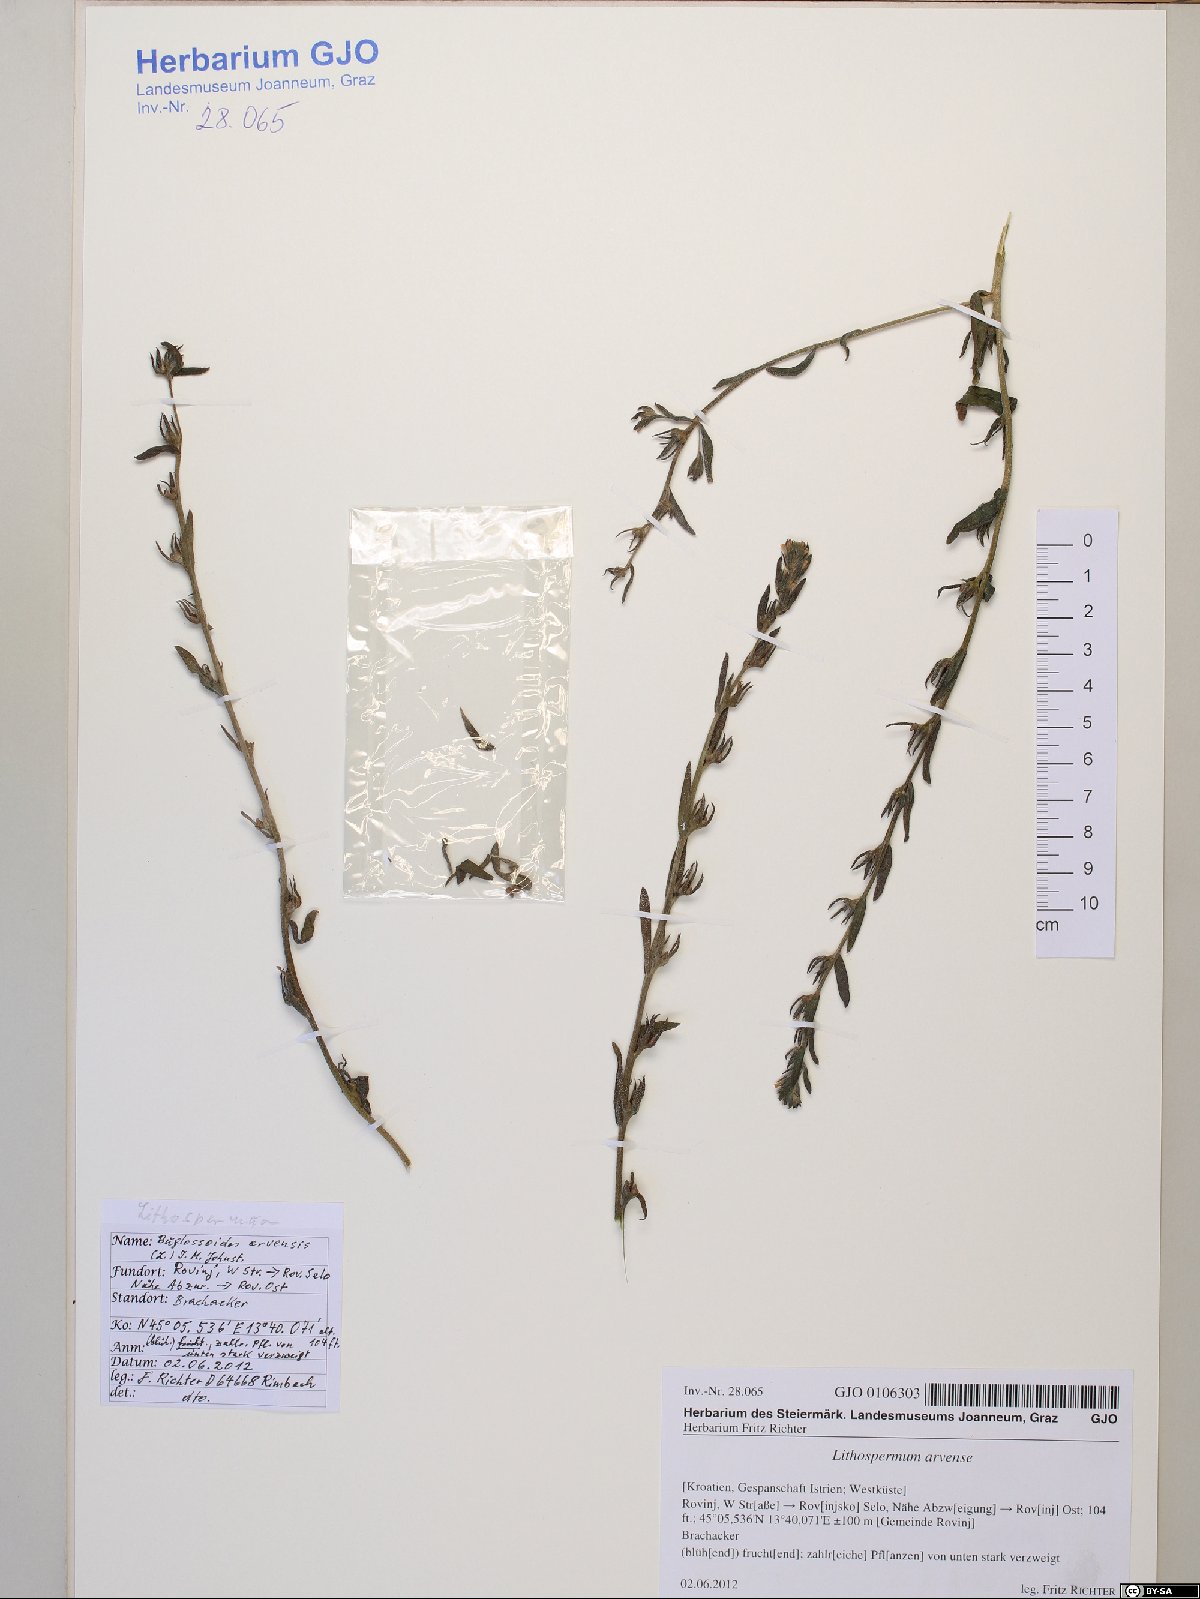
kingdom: Plantae
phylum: Tracheophyta
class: Magnoliopsida
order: Boraginales
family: Boraginaceae
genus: Buglossoides
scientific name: Buglossoides arvensis
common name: Corn gromwell
